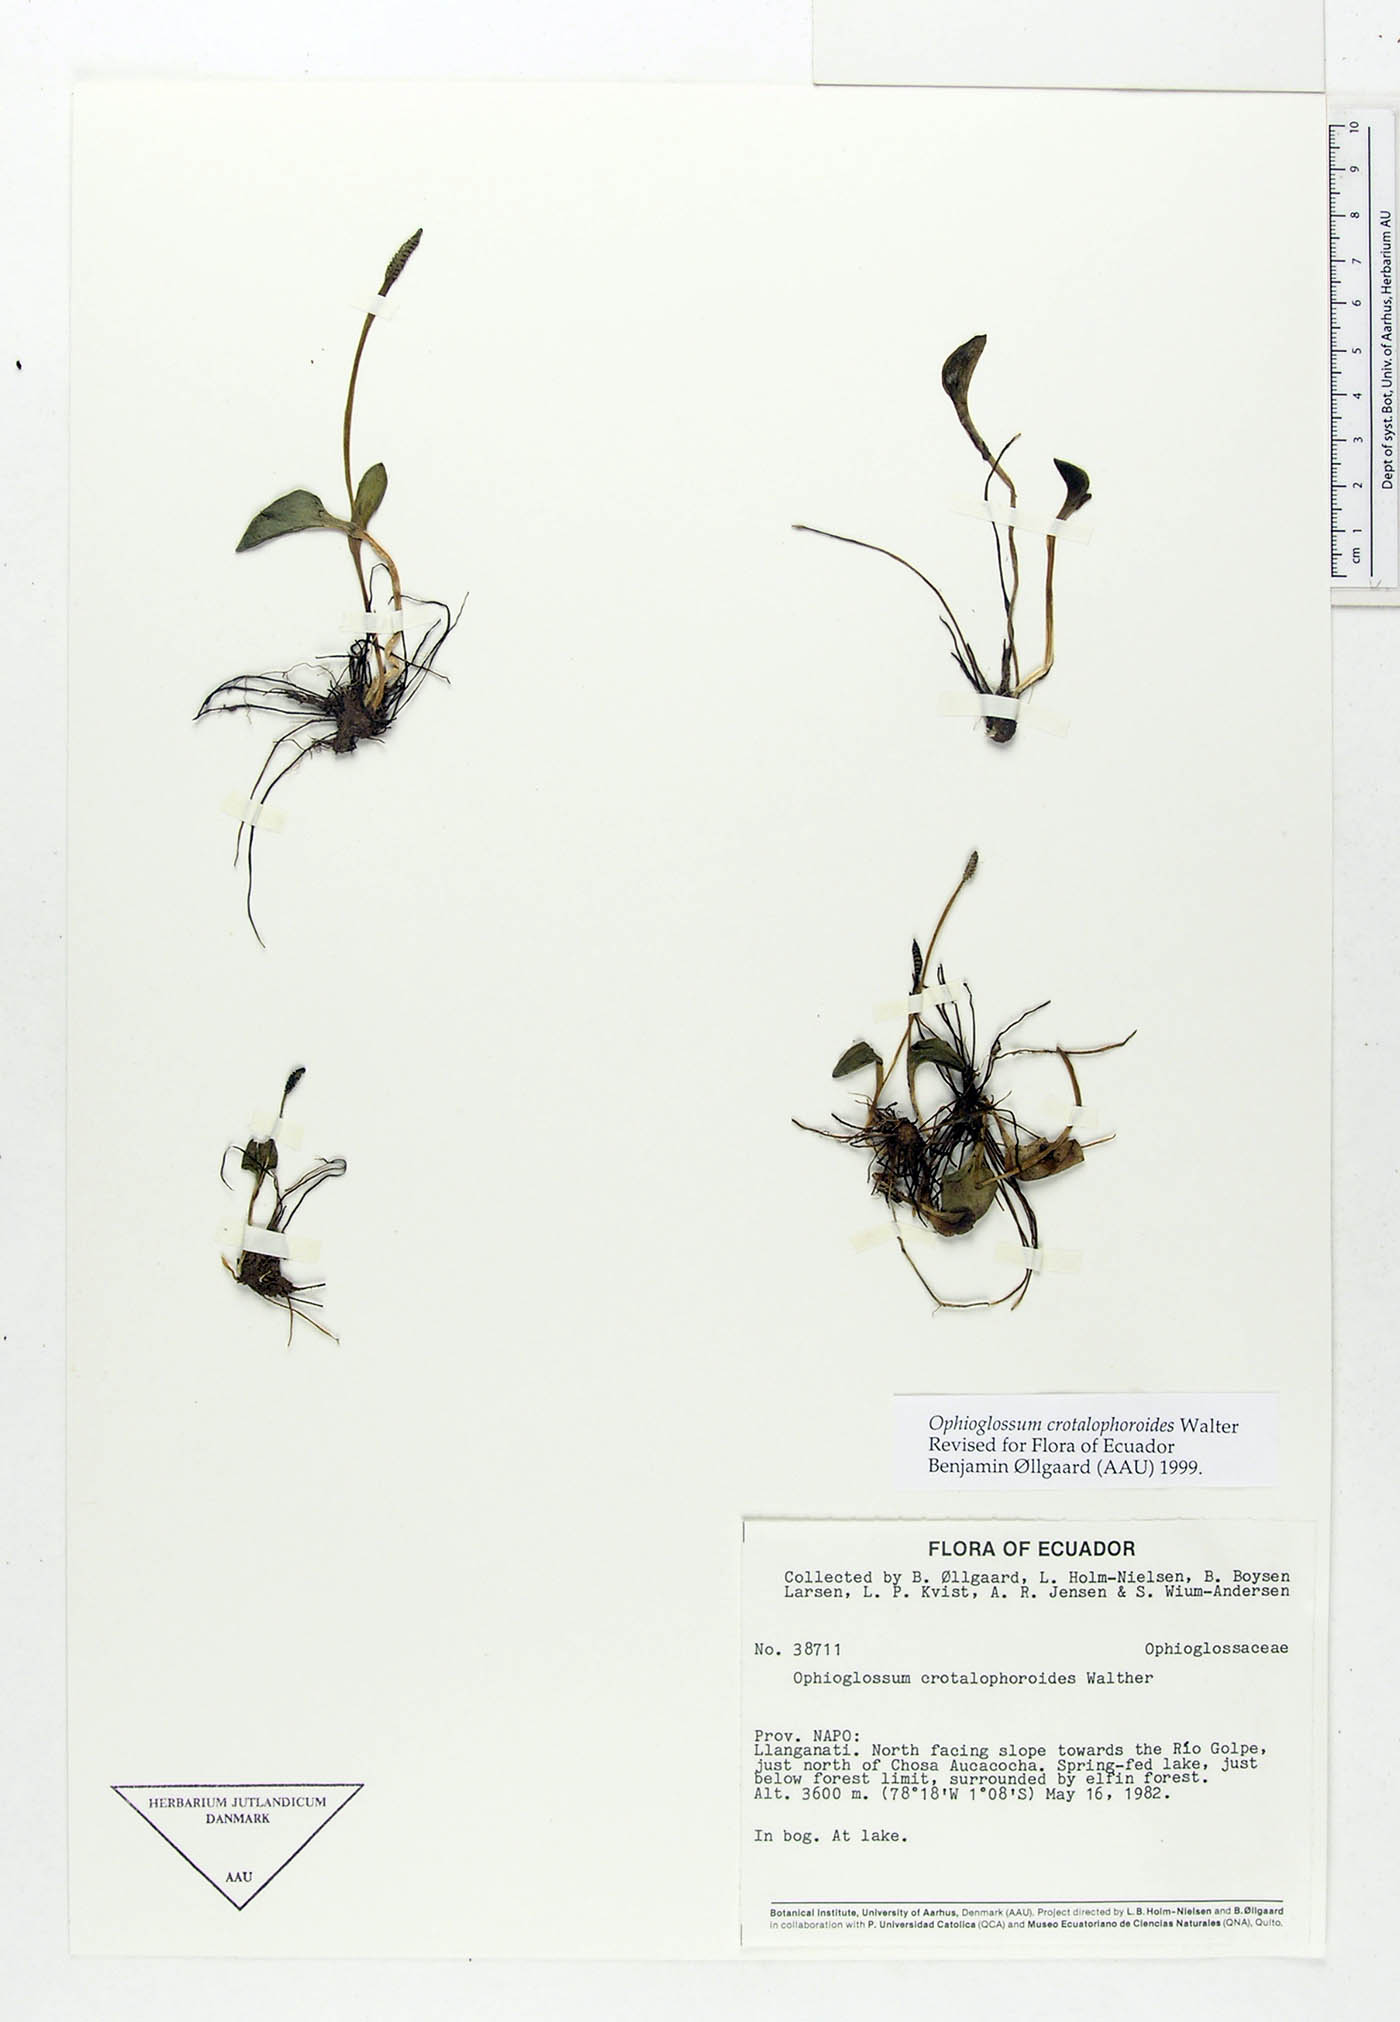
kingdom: Plantae
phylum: Tracheophyta
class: Polypodiopsida
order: Ophioglossales
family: Ophioglossaceae
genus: Ophioglossum
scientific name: Ophioglossum crotalophoroides
